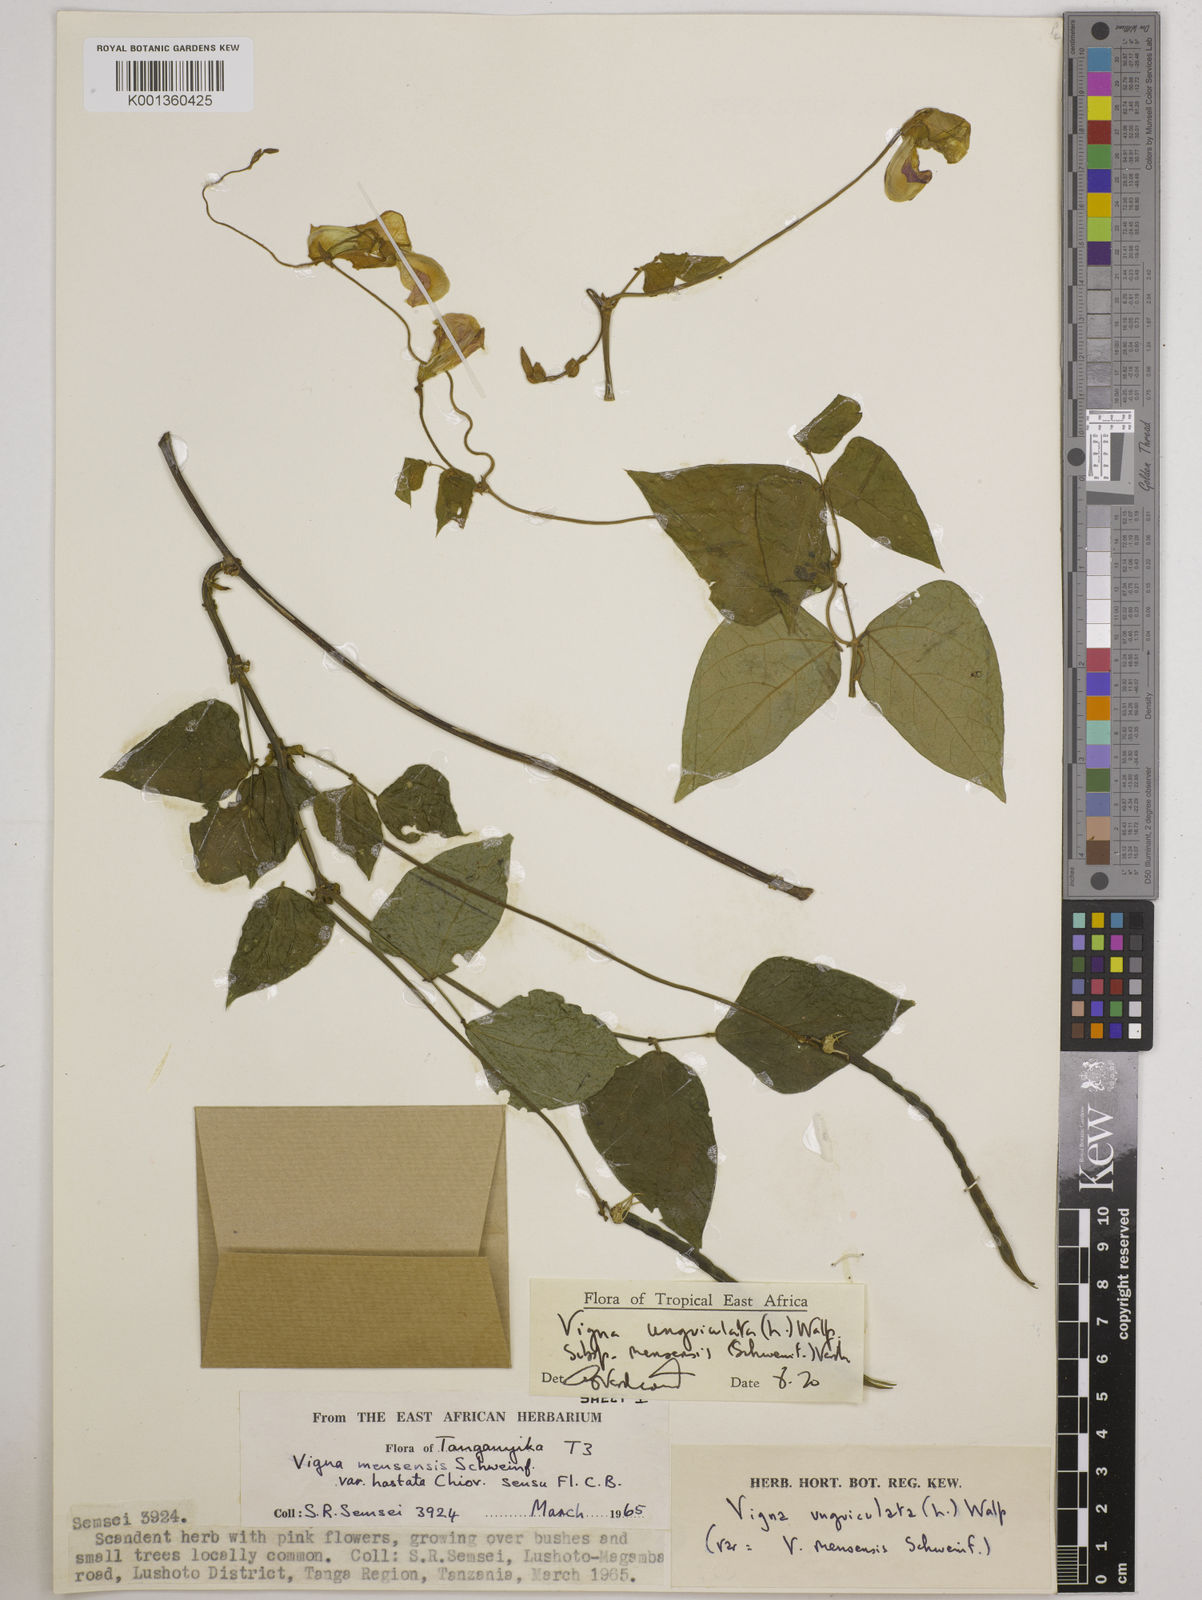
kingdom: Plantae
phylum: Tracheophyta
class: Magnoliopsida
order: Fabales
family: Fabaceae
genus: Vigna
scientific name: Vigna
